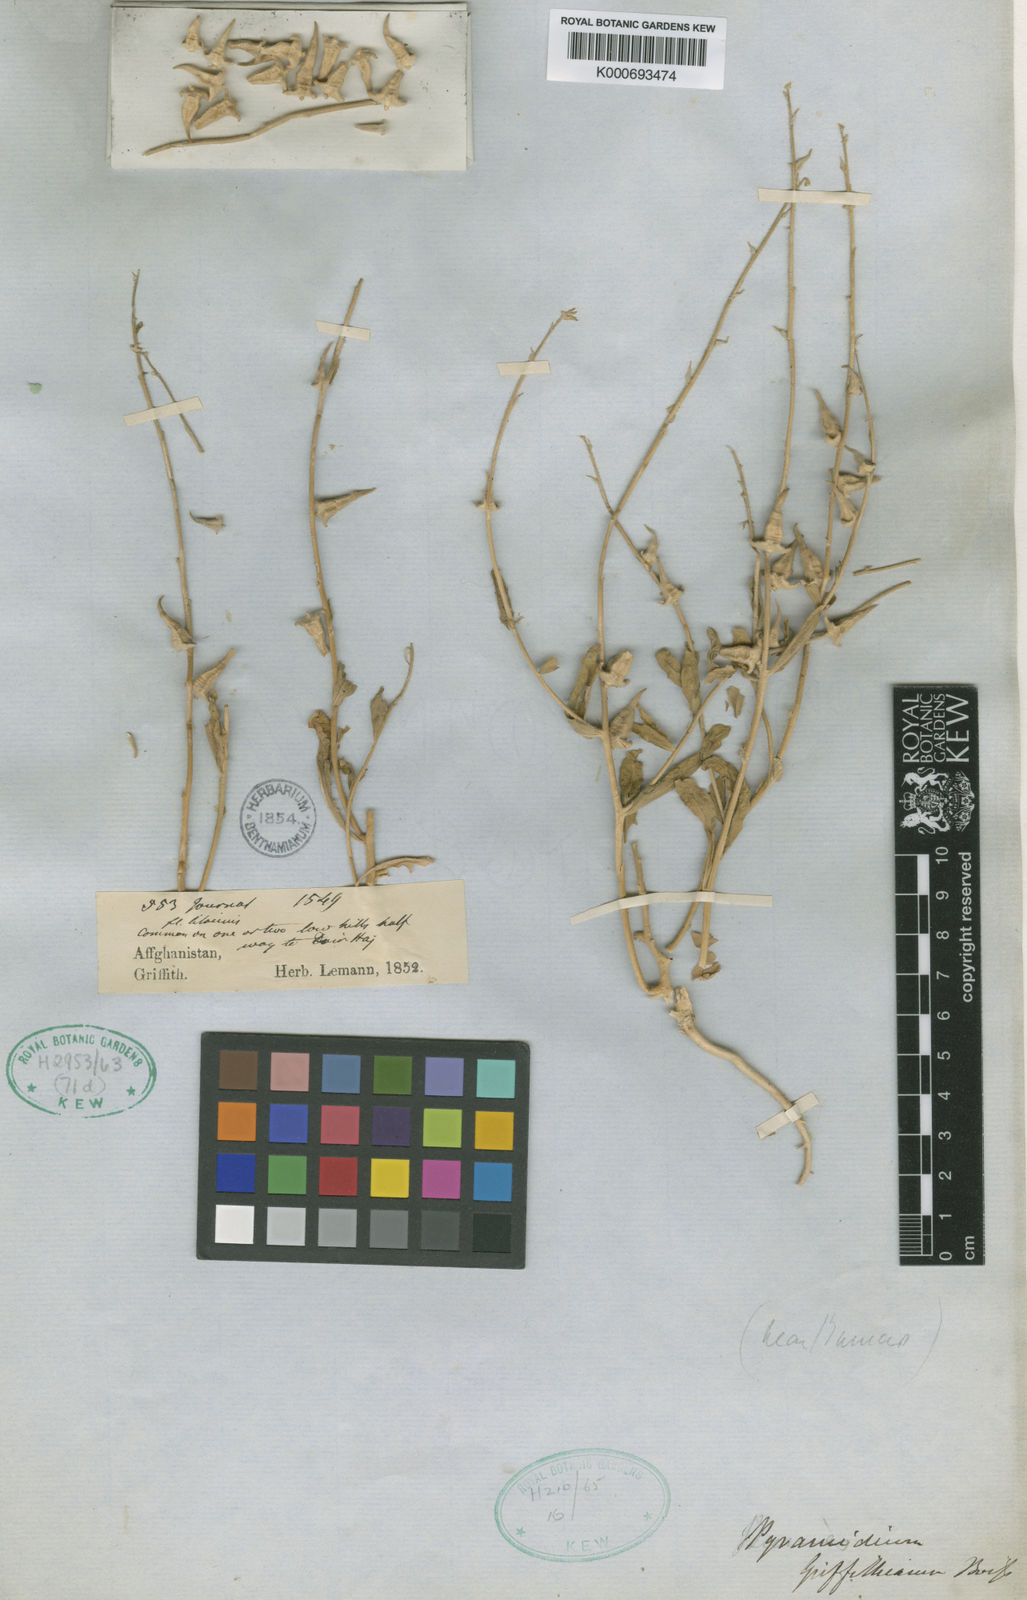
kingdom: Plantae
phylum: Tracheophyta
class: Magnoliopsida
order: Brassicales
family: Brassicaceae
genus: Veselskya
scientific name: Veselskya griffithiana
